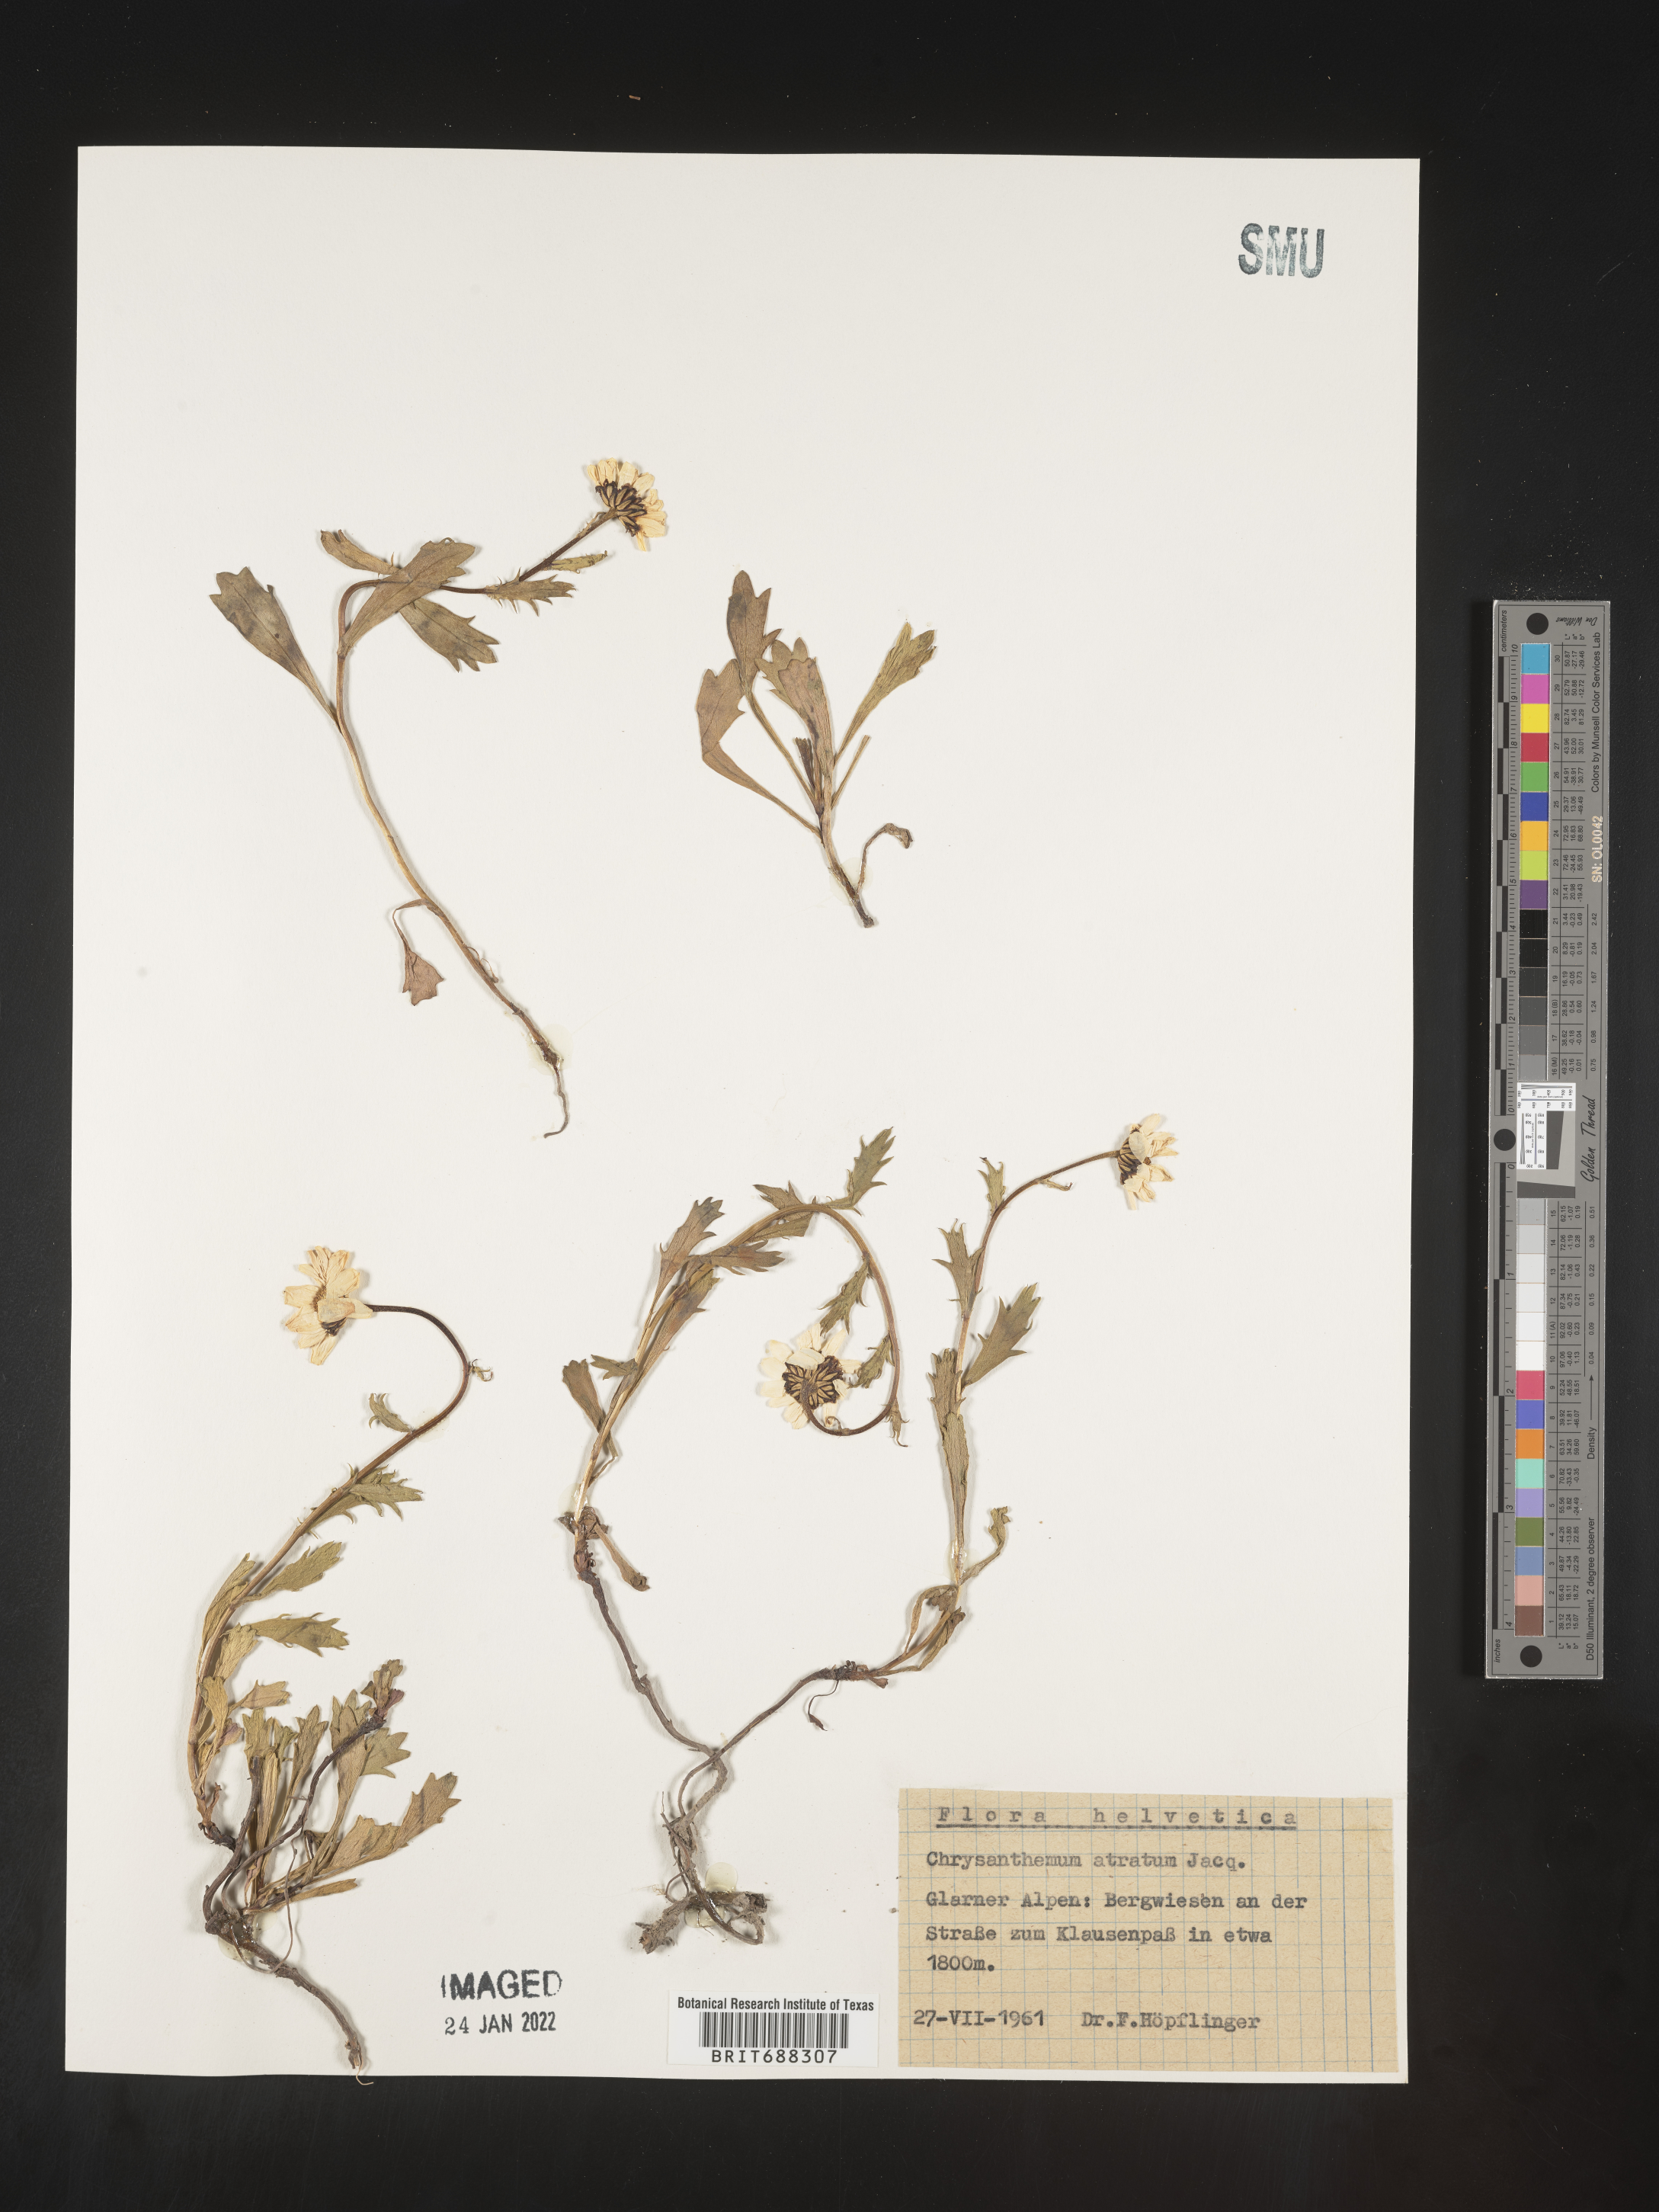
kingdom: Plantae
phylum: Tracheophyta
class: Magnoliopsida
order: Asterales
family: Asteraceae
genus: Chrysanthemum
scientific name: Chrysanthemum
